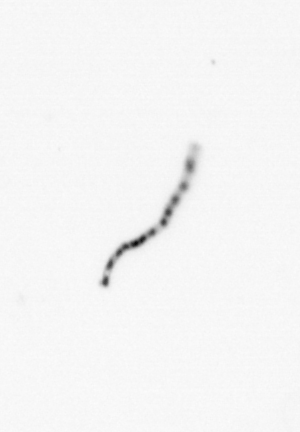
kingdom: Chromista
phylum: Ochrophyta
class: Bacillariophyceae
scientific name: Bacillariophyceae
